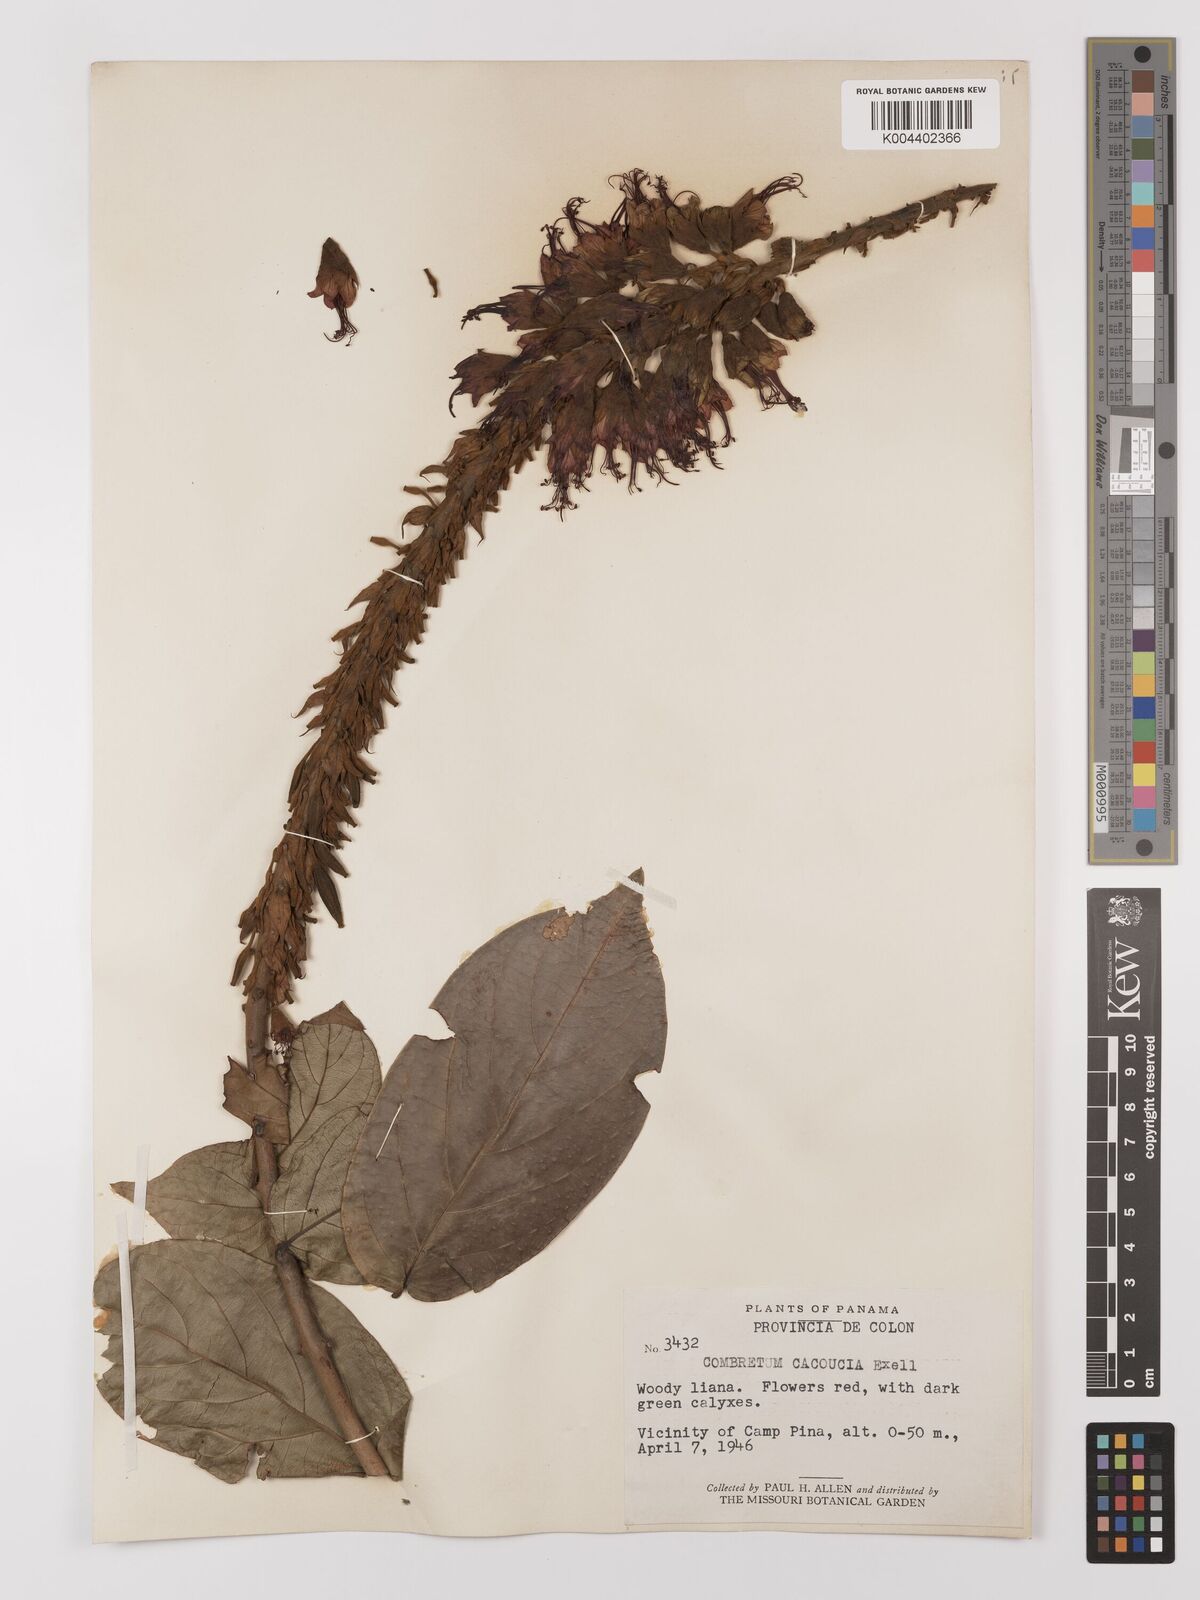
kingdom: Plantae
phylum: Tracheophyta
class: Magnoliopsida
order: Myrtales
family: Combretaceae
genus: Combretum
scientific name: Combretum cacoucia
